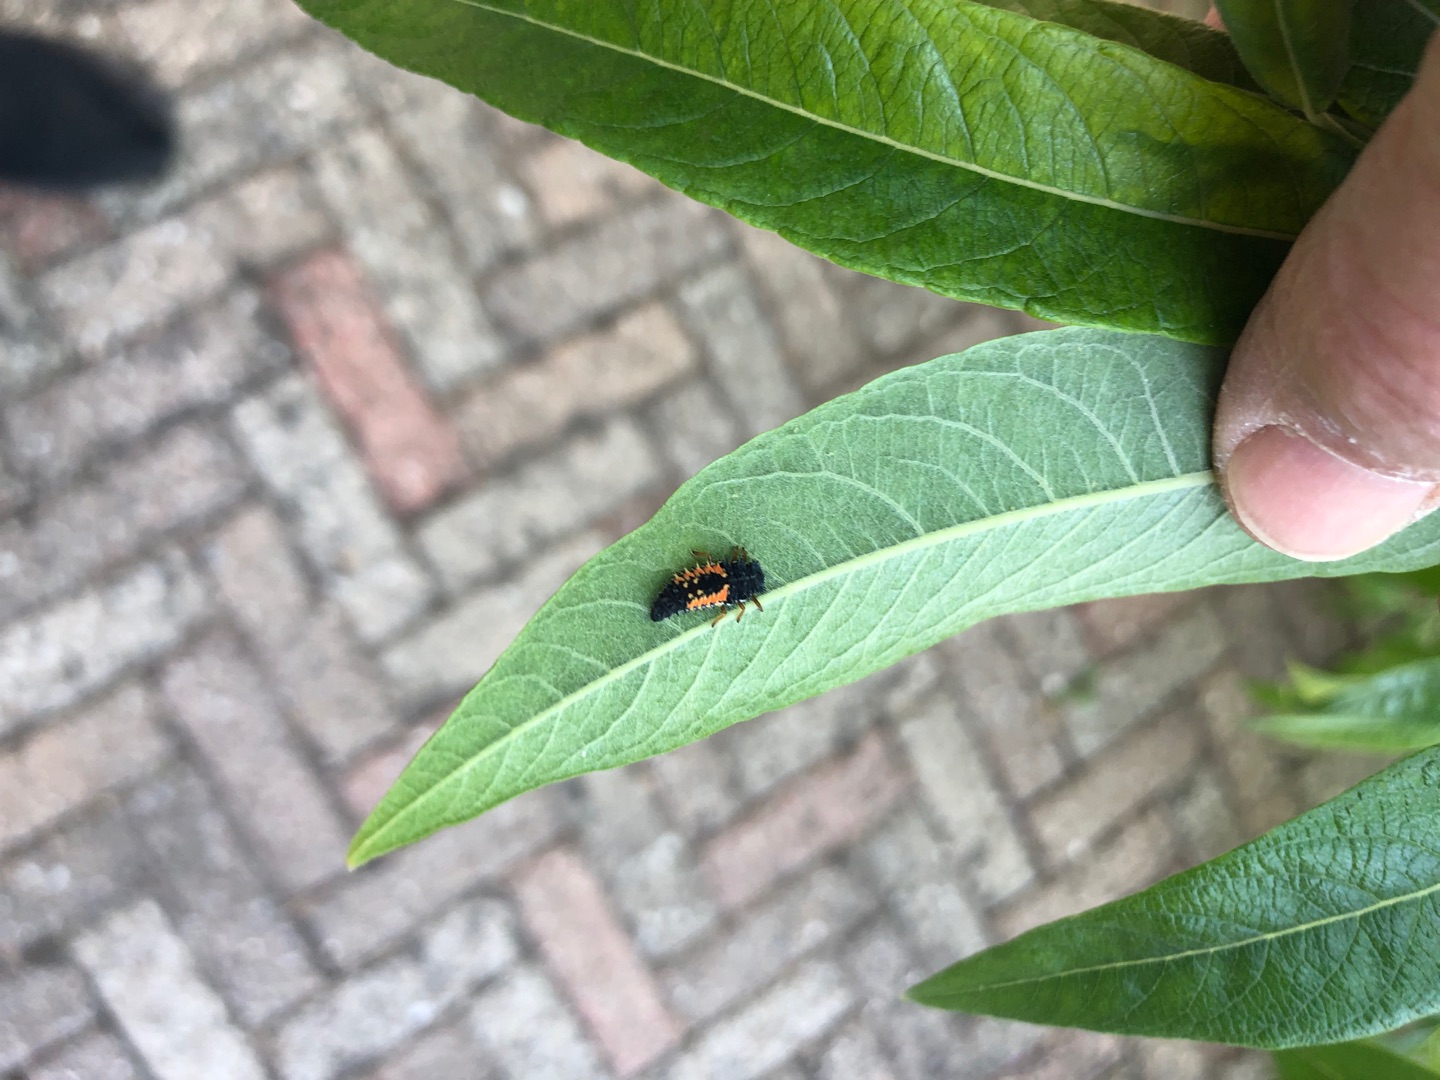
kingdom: Animalia
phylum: Arthropoda
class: Insecta
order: Coleoptera
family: Coccinellidae
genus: Harmonia
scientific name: Harmonia axyridis
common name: Harlekinmariehøne
